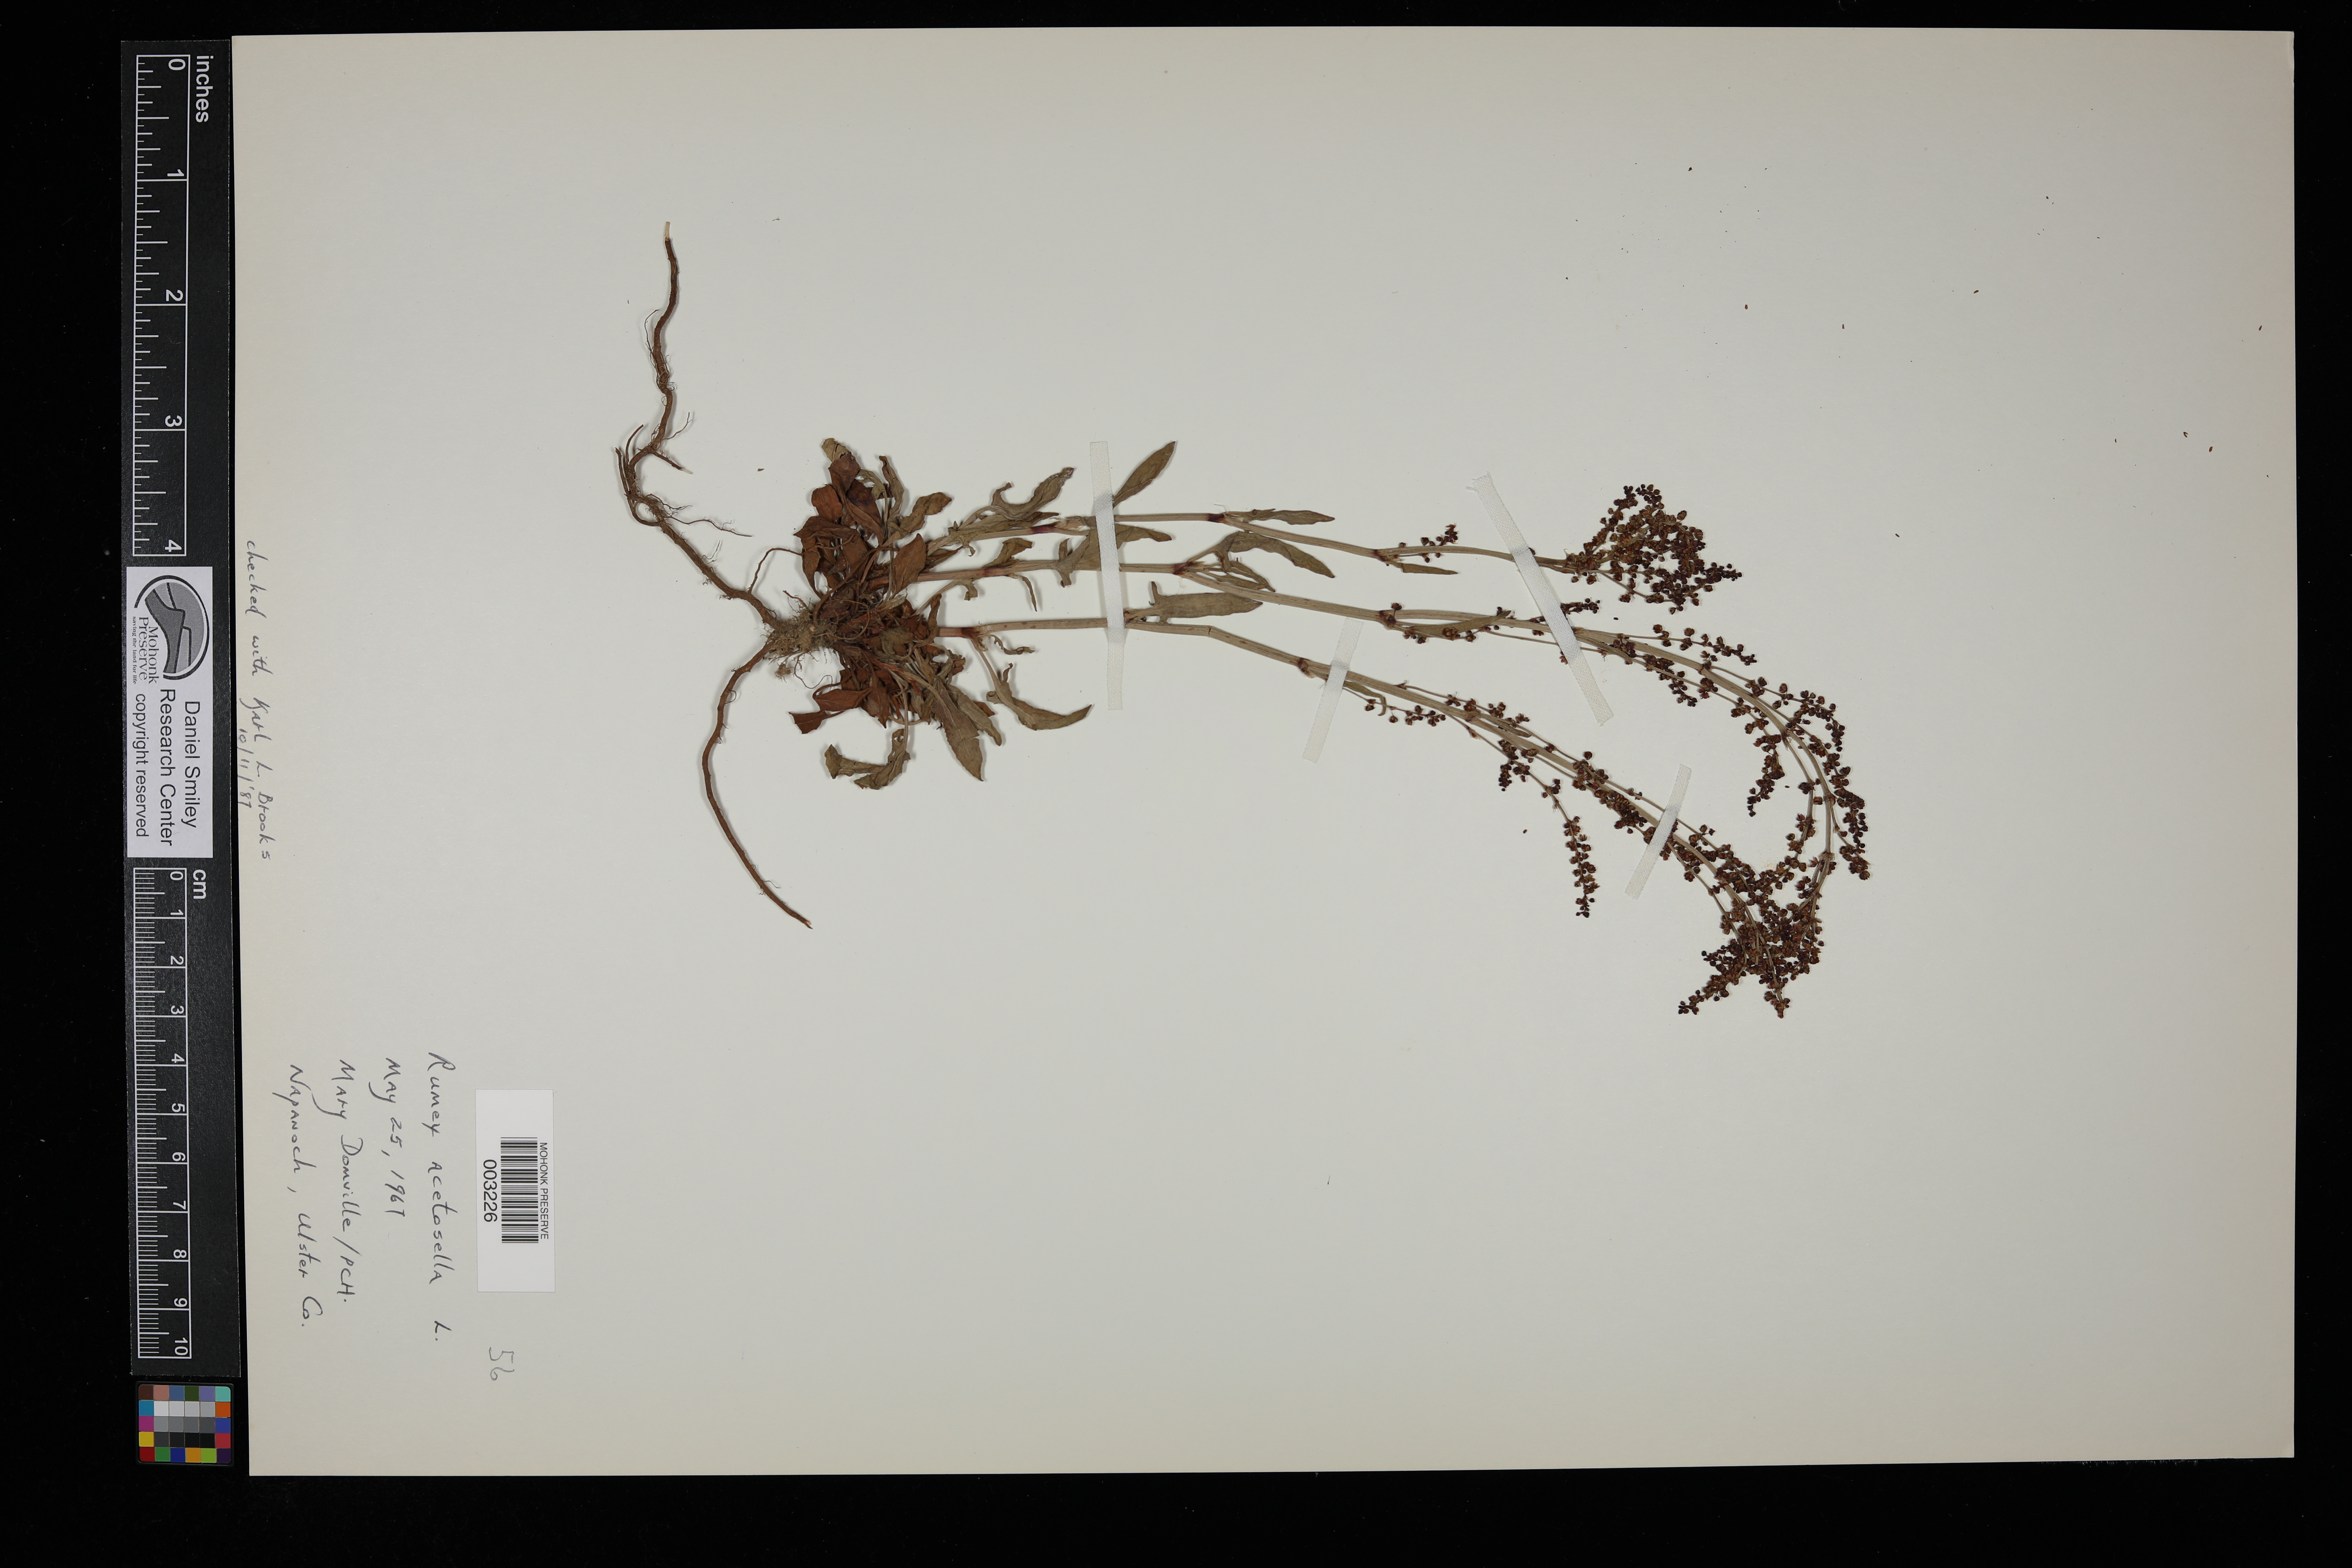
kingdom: Plantae
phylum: Tracheophyta
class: Magnoliopsida
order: Caryophyllales
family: Polygonaceae
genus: Rumex
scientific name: Rumex acetosella
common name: Common sheep sorrel
